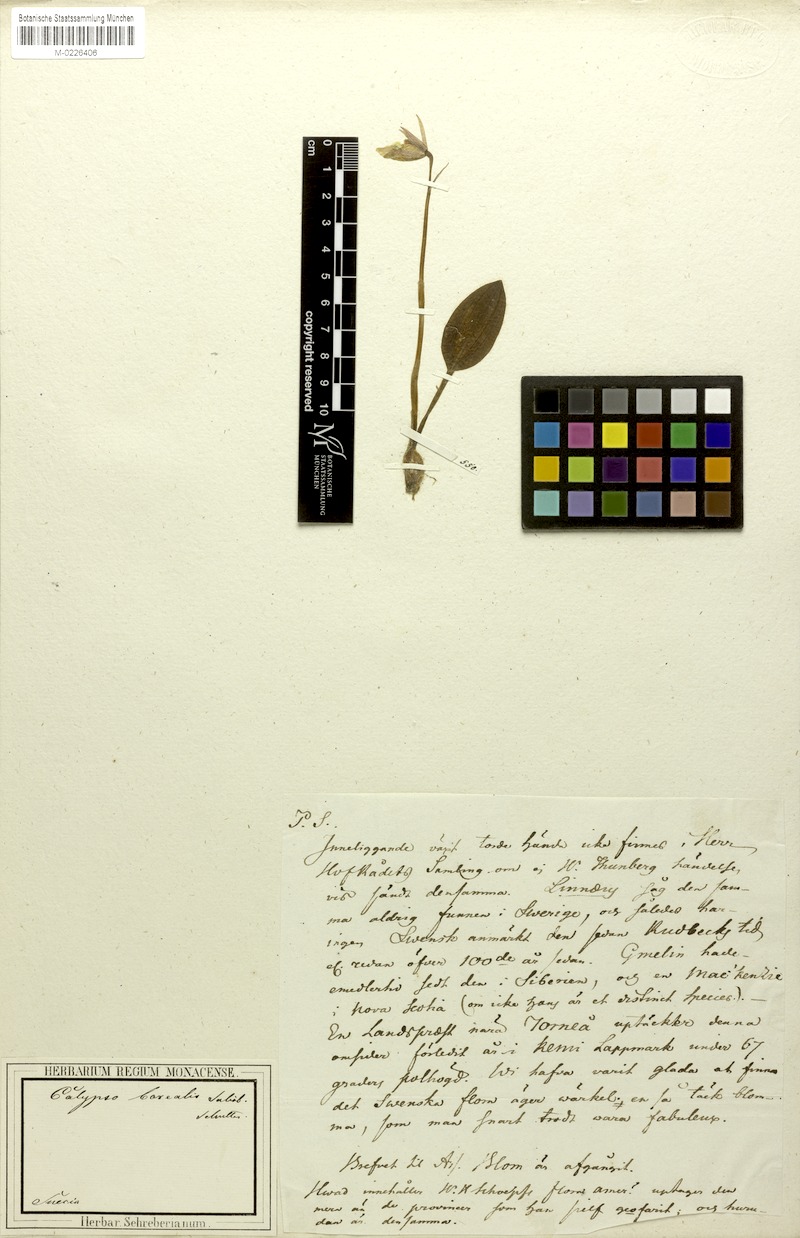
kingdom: Plantae
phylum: Tracheophyta
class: Liliopsida
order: Asparagales
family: Orchidaceae
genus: Calypso
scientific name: Calypso bulbosa
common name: Calypso
